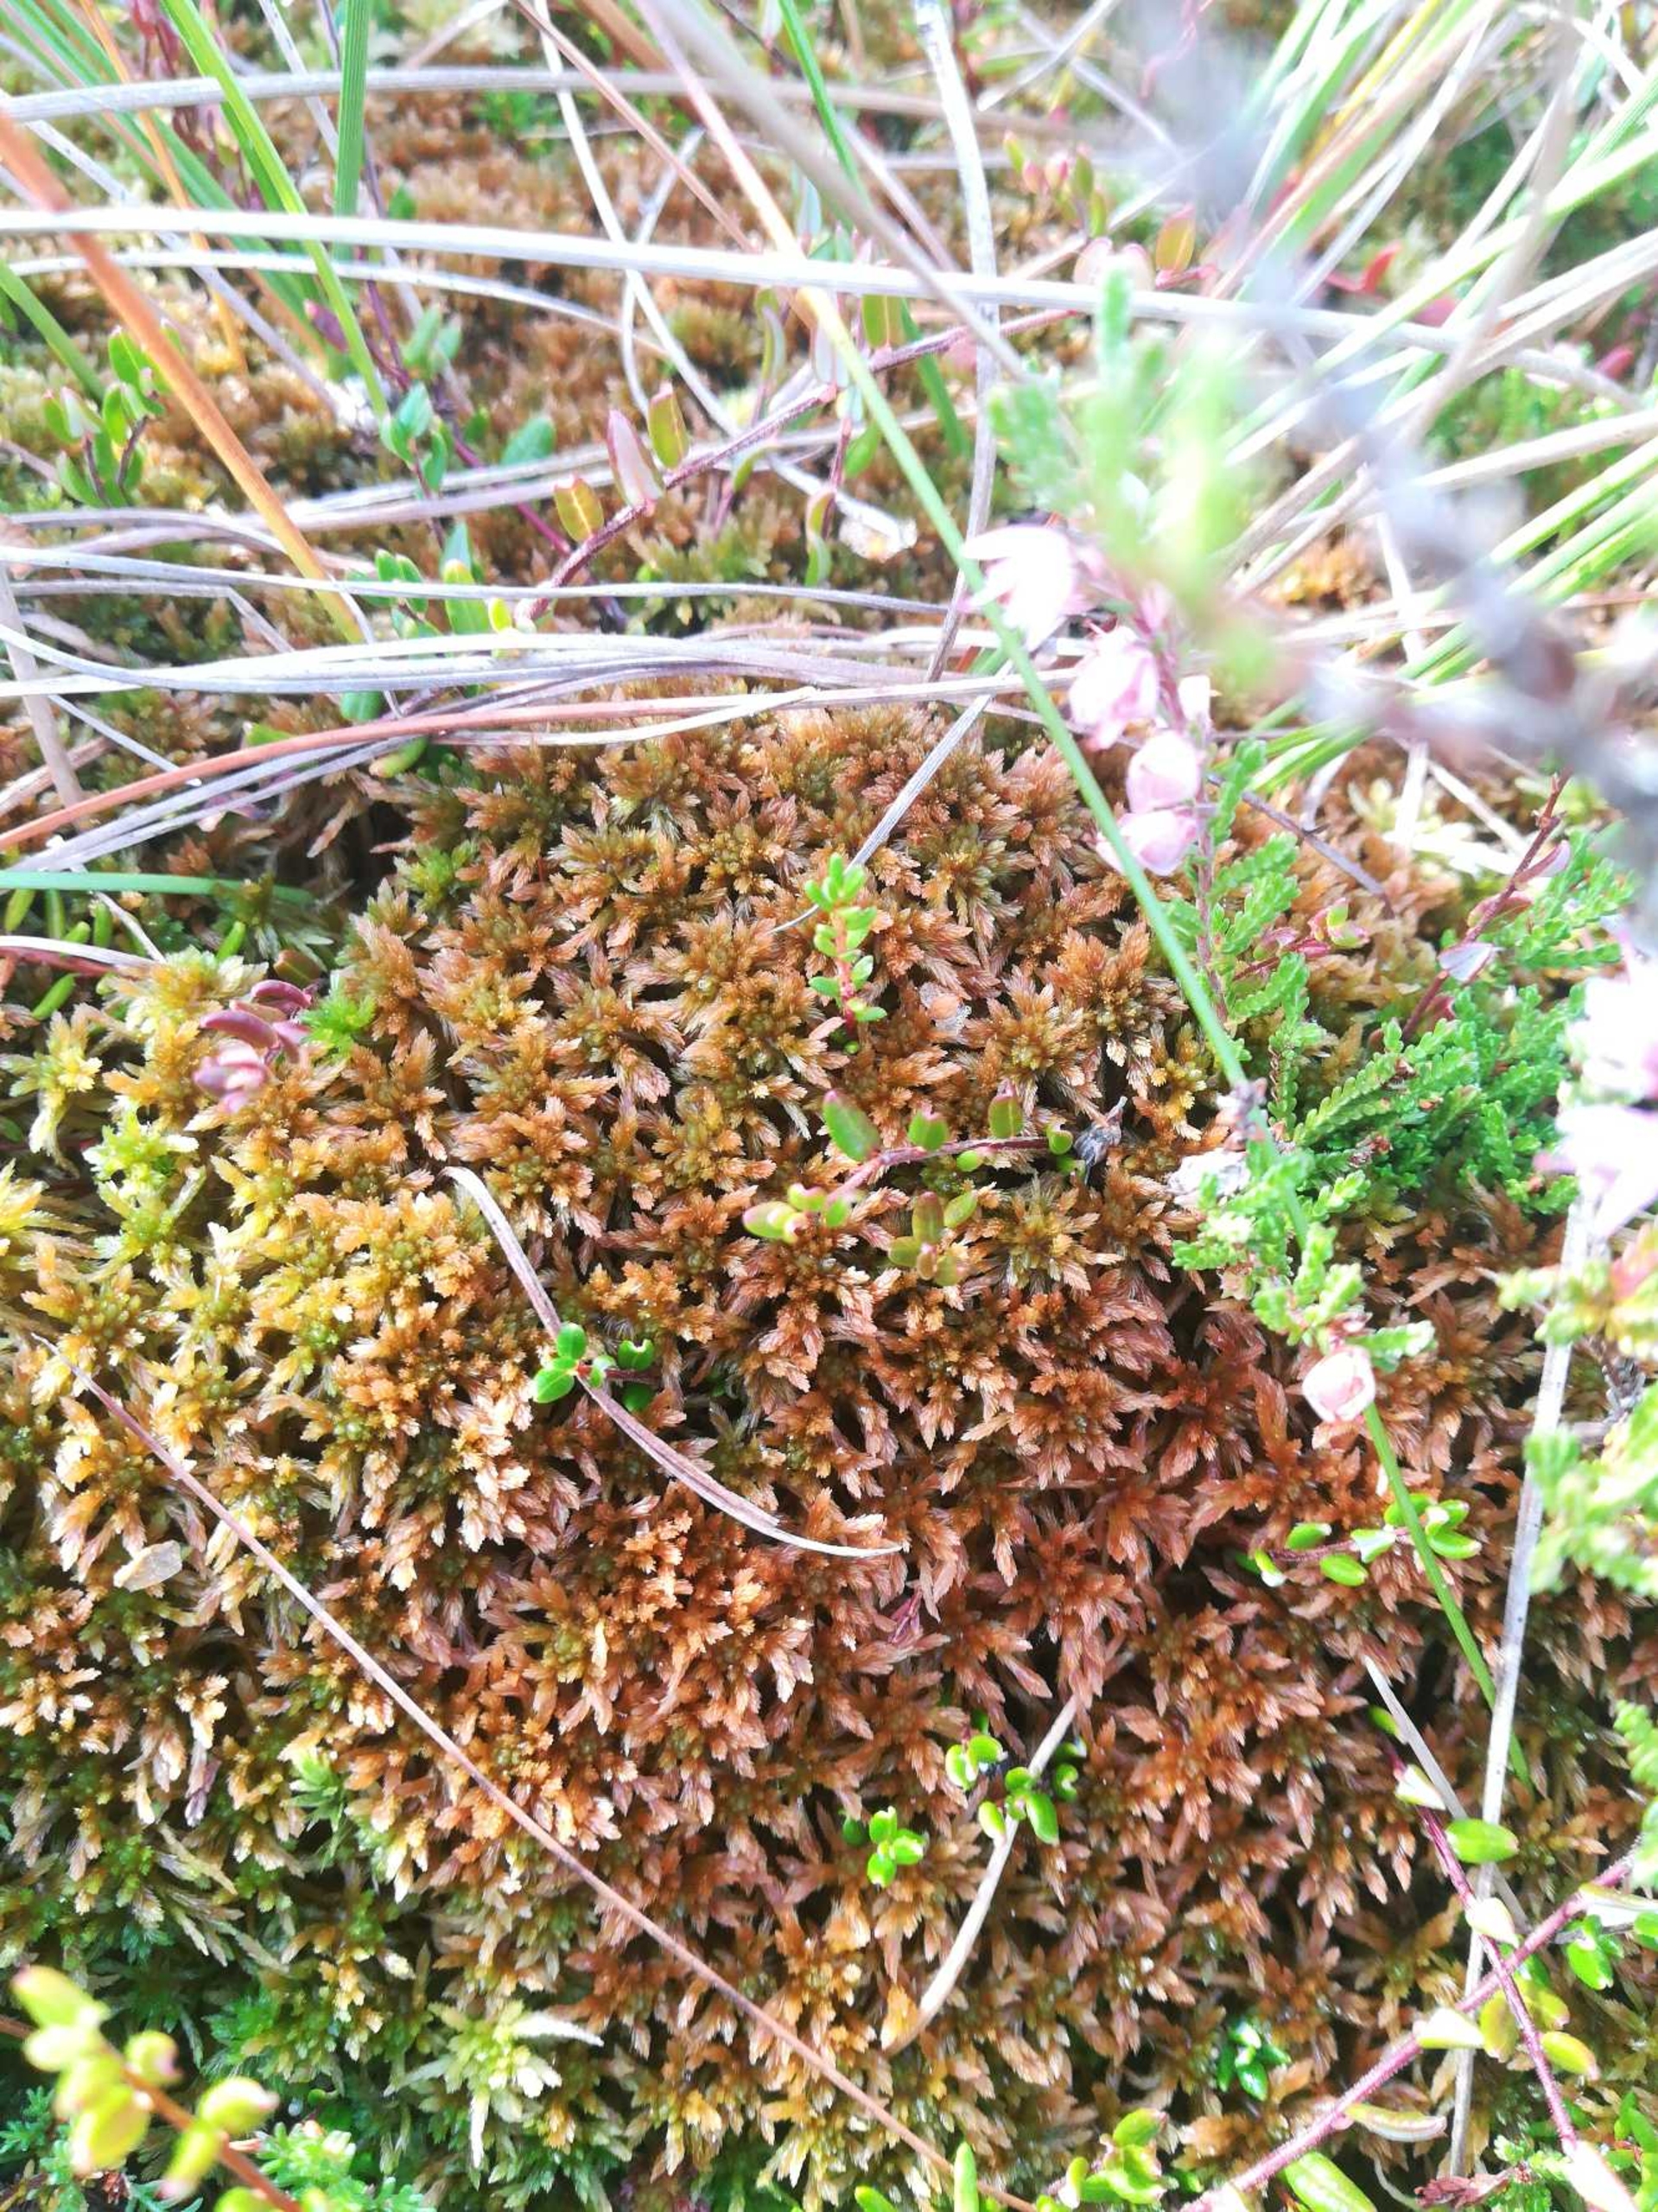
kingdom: Plantae
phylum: Bryophyta
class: Sphagnopsida
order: Sphagnales
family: Sphagnaceae
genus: Sphagnum
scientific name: Sphagnum fuscum
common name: Rustbrun tørvemos
